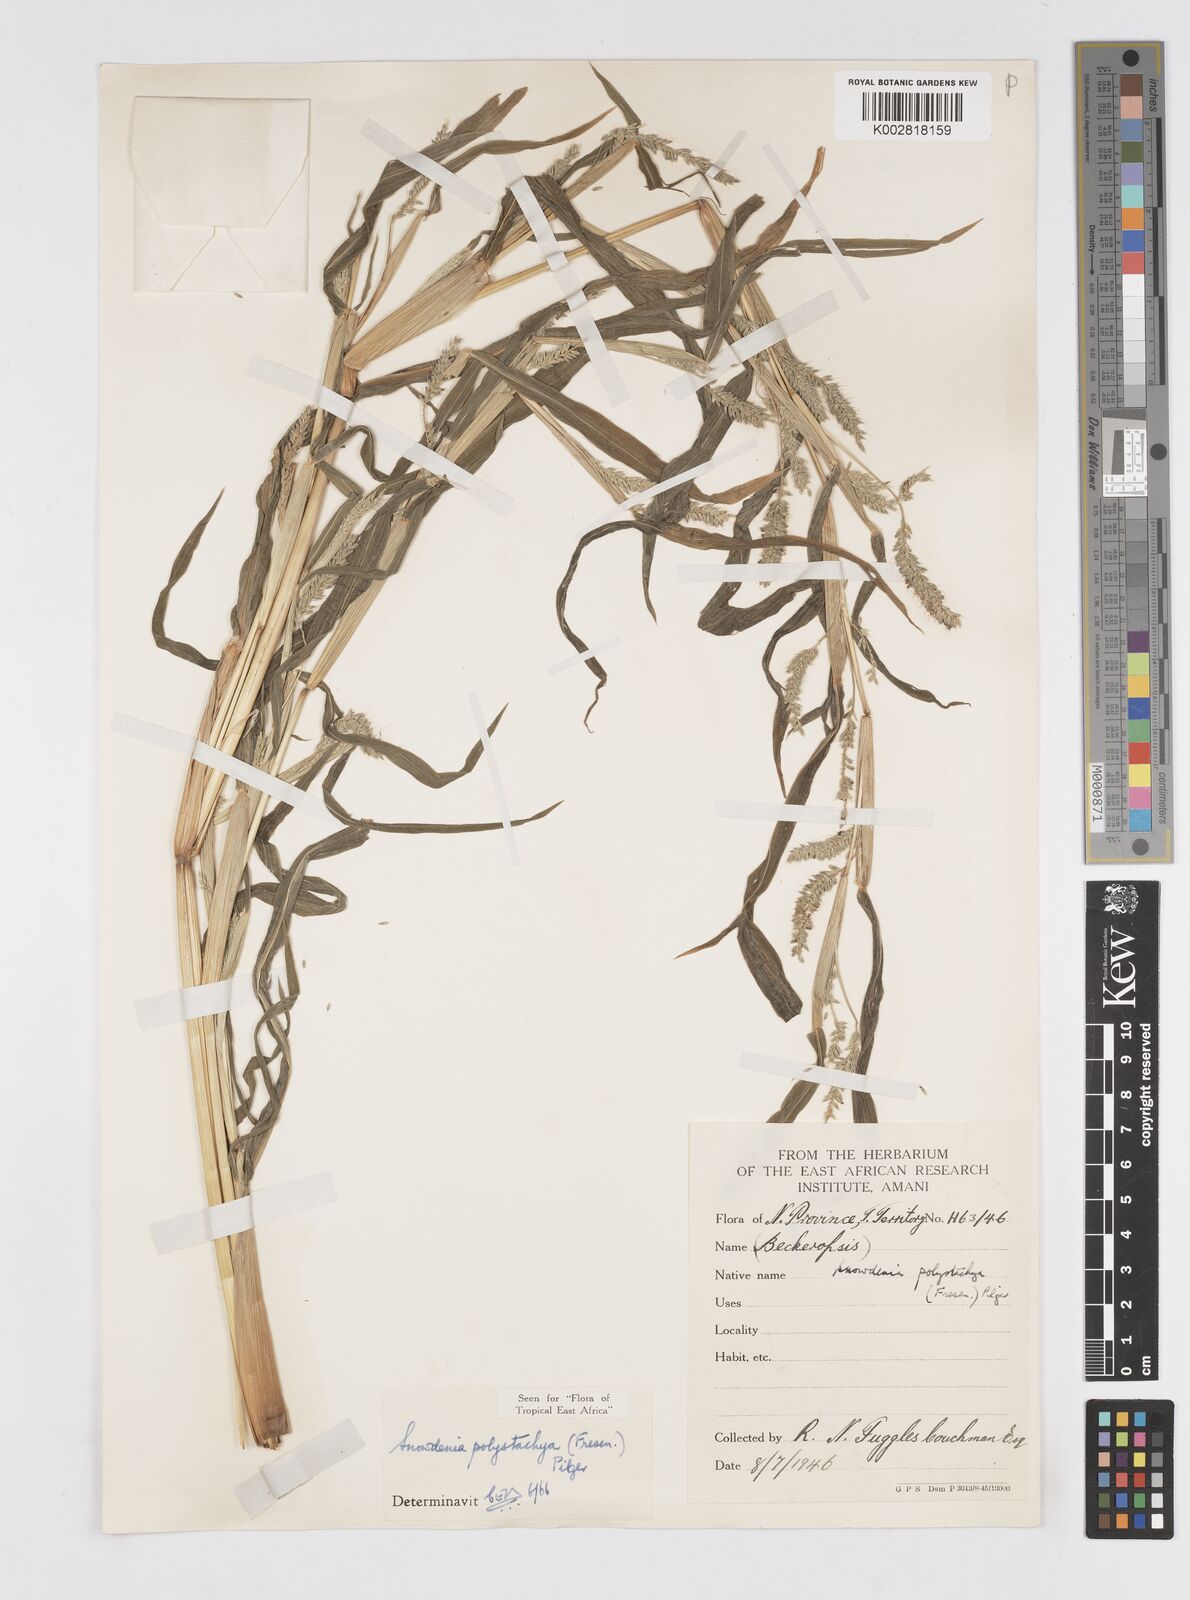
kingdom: Plantae
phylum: Tracheophyta
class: Liliopsida
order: Poales
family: Poaceae
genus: Snowdenia
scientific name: Snowdenia polystachya
